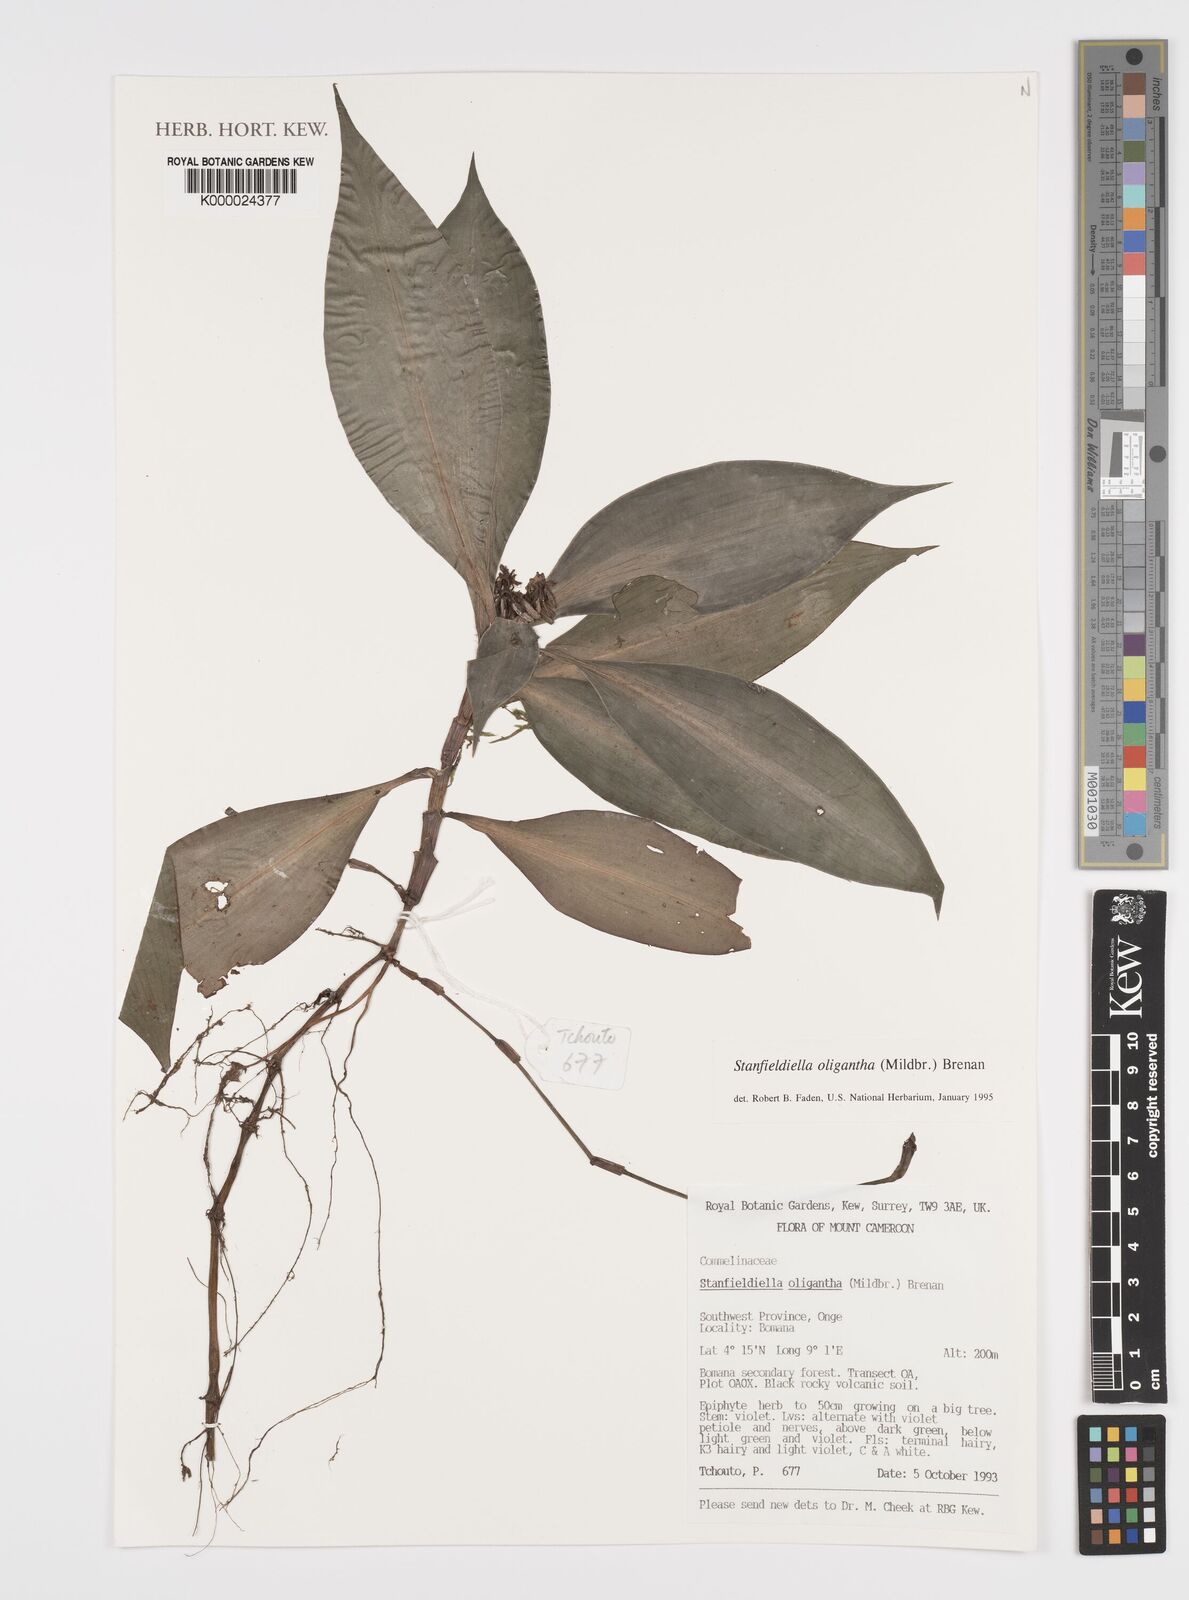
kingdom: Plantae
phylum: Tracheophyta
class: Liliopsida
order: Commelinales
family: Commelinaceae
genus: Stanfieldiella
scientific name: Stanfieldiella oligantha
